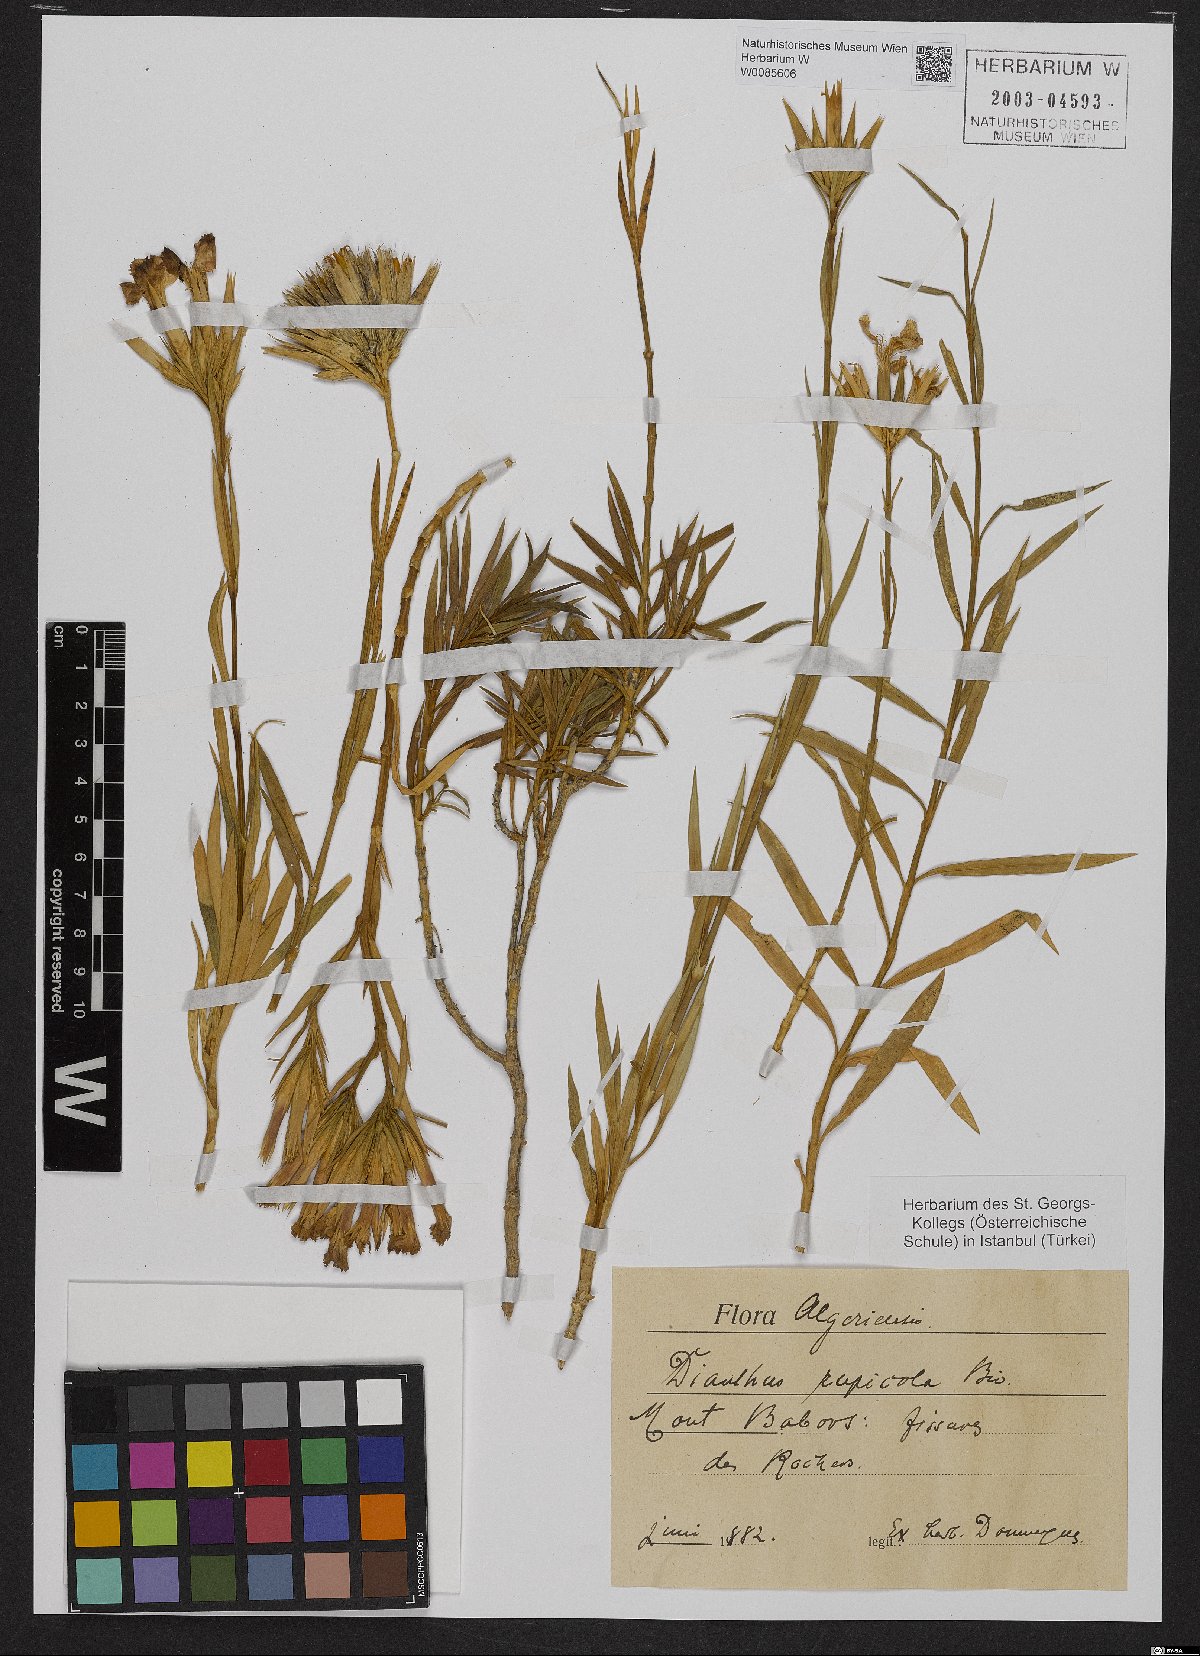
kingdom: Plantae
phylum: Tracheophyta
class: Magnoliopsida
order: Caryophyllales
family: Caryophyllaceae
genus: Dianthus
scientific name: Dianthus rupicola
